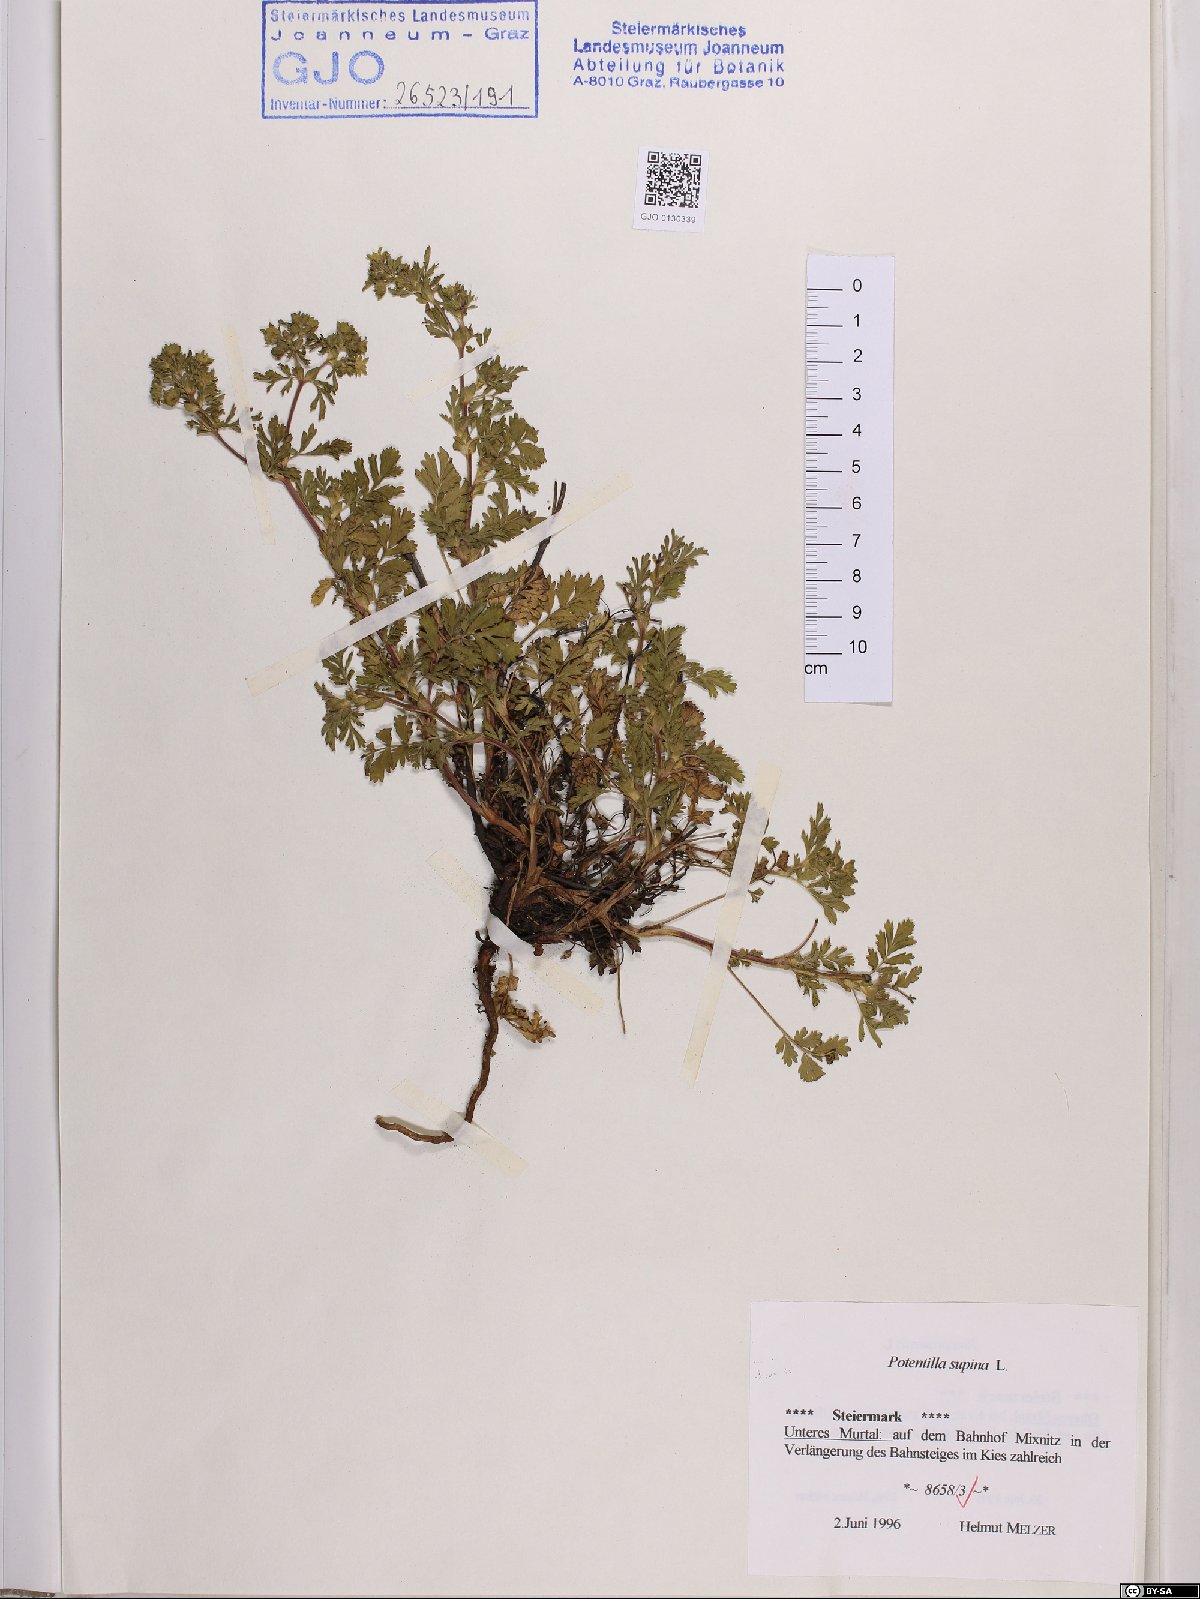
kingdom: Plantae
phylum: Tracheophyta
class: Magnoliopsida
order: Rosales
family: Rosaceae
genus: Potentilla
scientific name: Potentilla supina
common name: Prostrate cinquefoil
